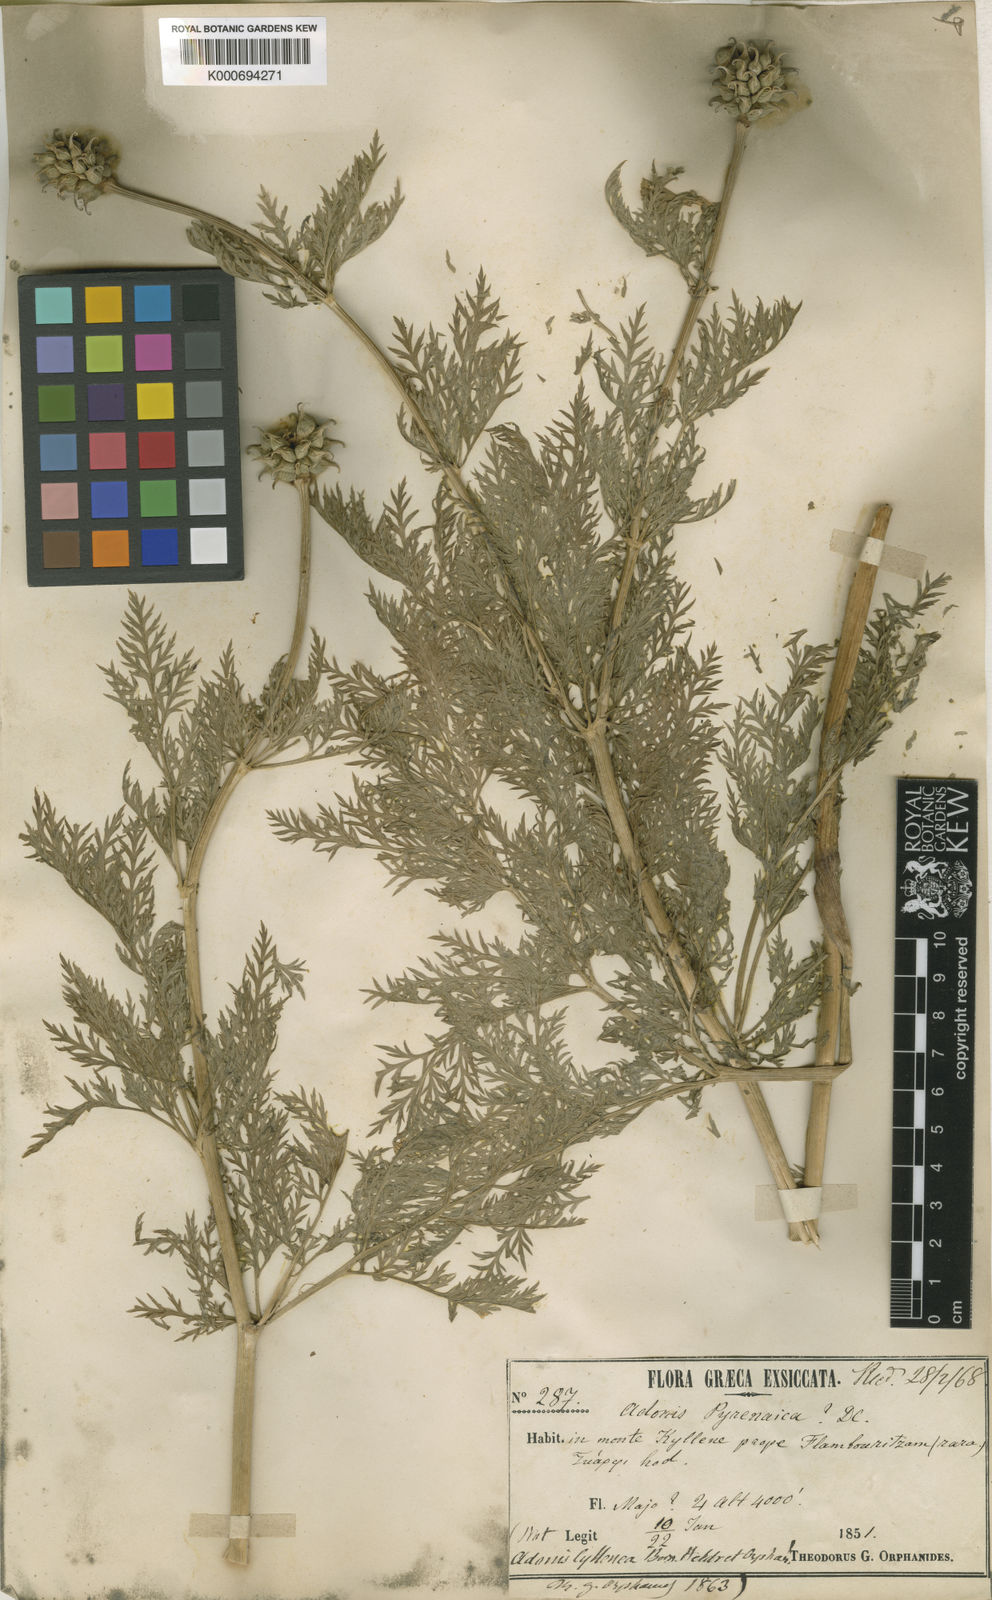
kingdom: Plantae
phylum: Tracheophyta
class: Magnoliopsida
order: Ranunculales
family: Ranunculaceae
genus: Adonis
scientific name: Adonis cyllenea
